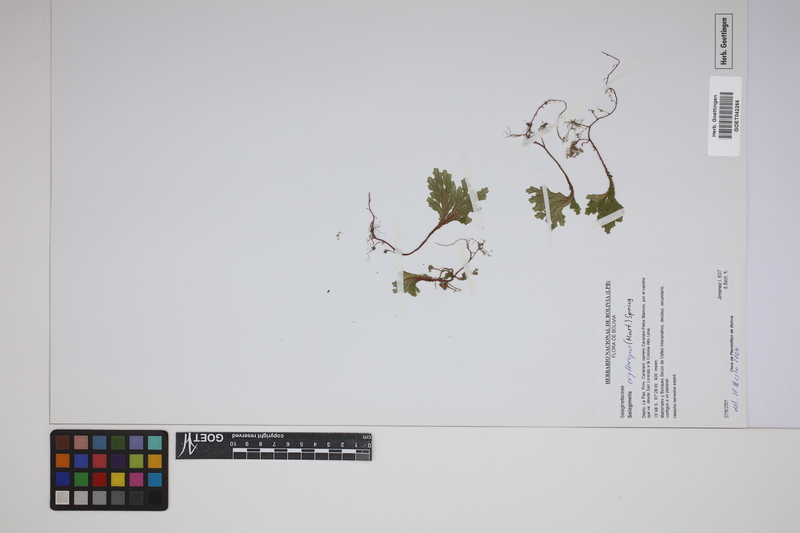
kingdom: Plantae
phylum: Tracheophyta
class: Lycopodiopsida
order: Selaginellales
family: Selaginellaceae
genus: Selaginella
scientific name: Selaginella erythropus
